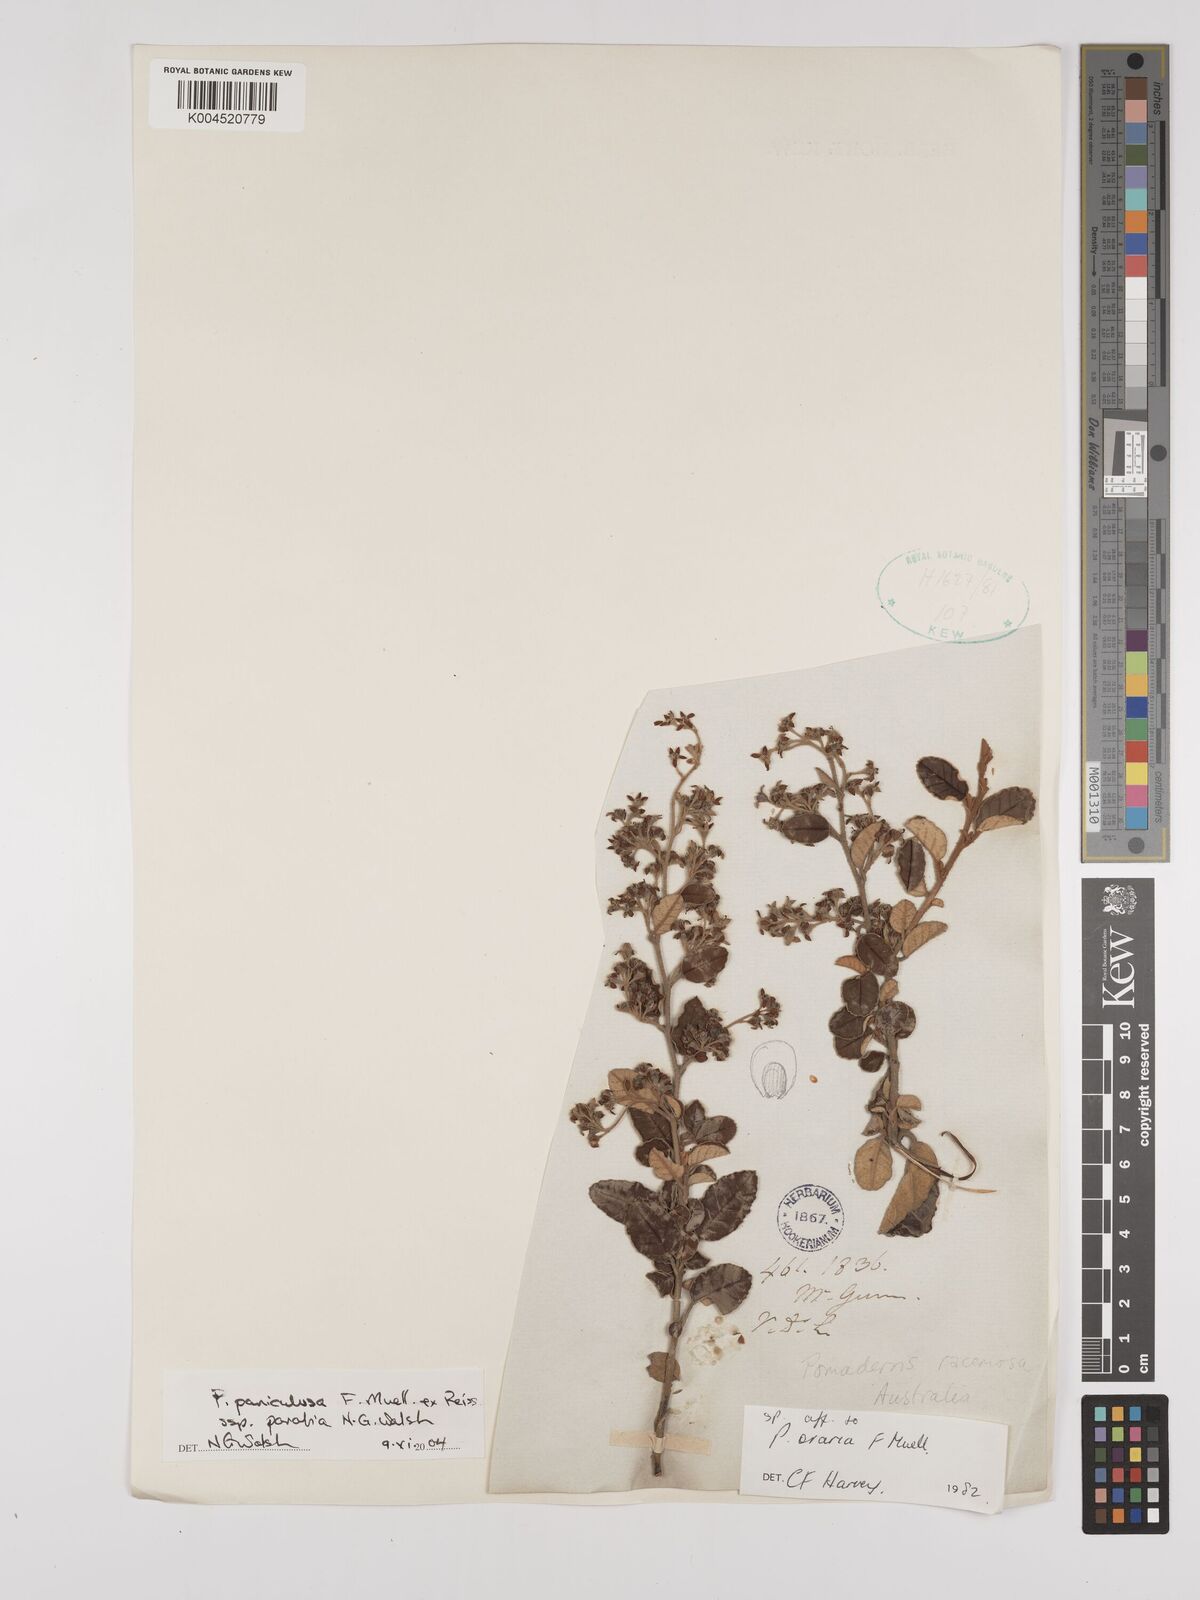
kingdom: Plantae
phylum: Tracheophyta
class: Magnoliopsida
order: Rosales
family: Rhamnaceae
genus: Pomaderris
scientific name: Pomaderris paniculosa
